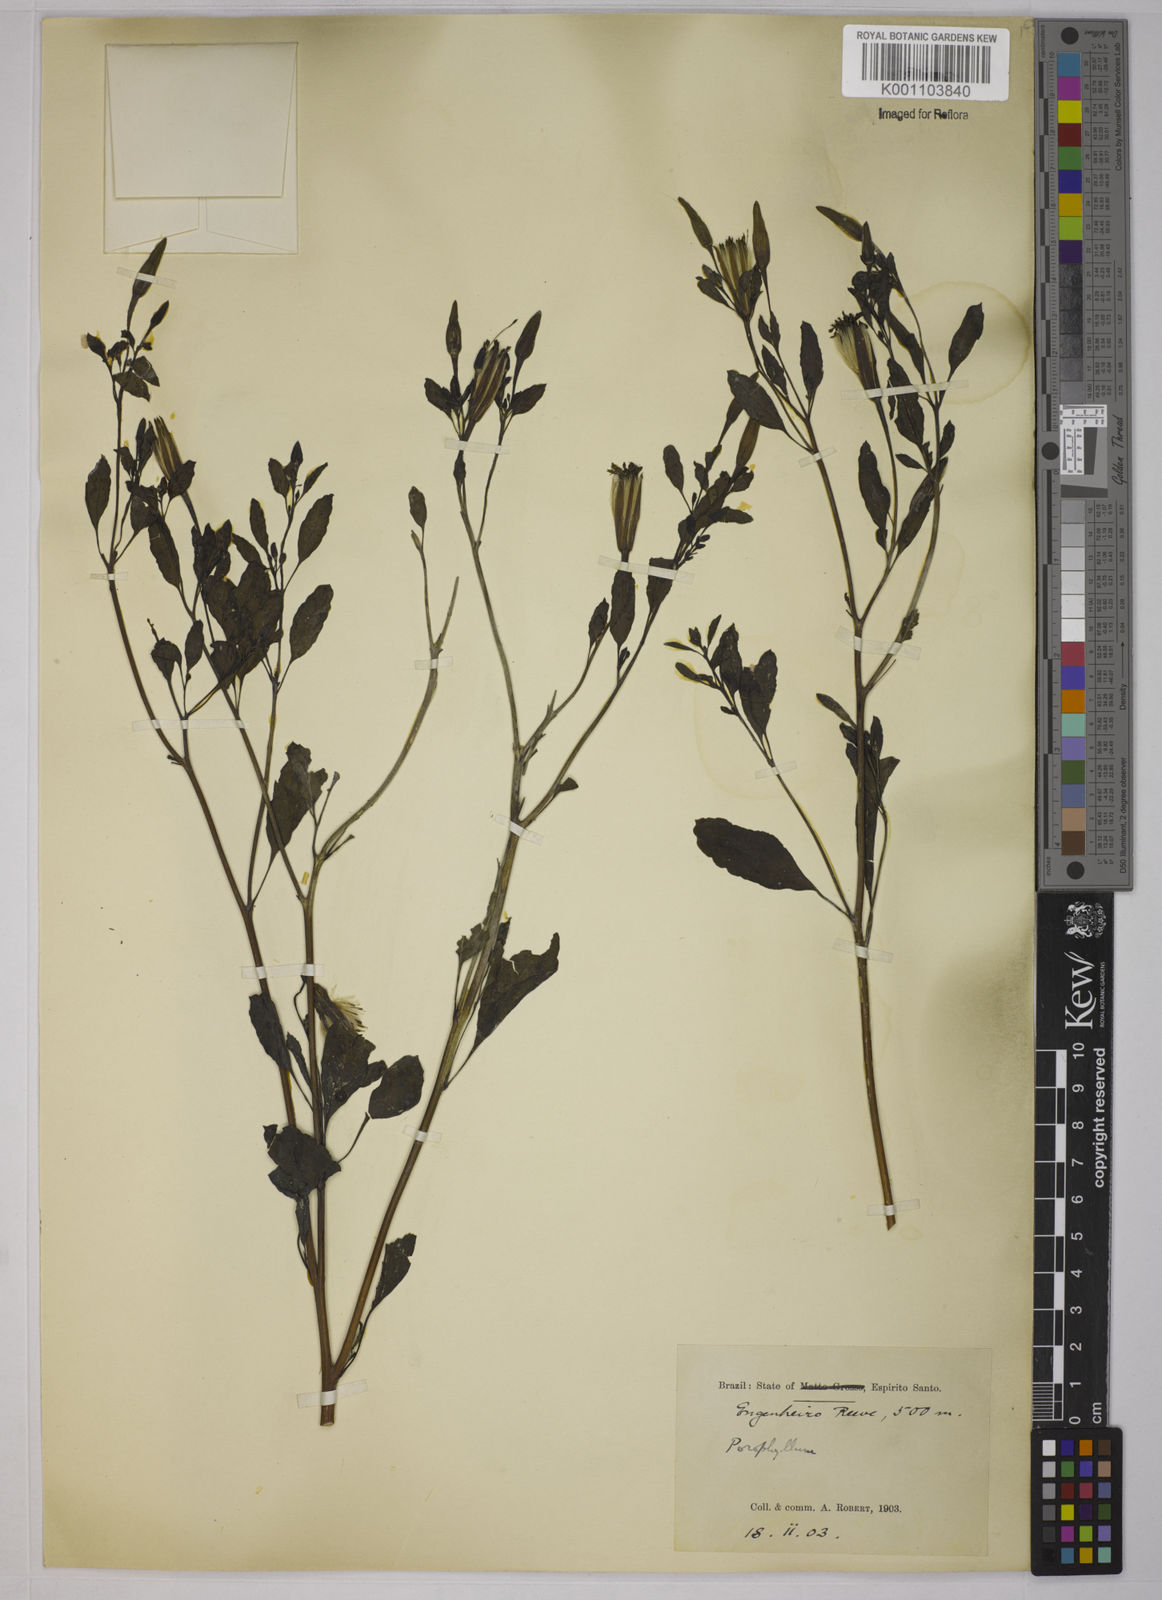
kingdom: Plantae
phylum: Tracheophyta
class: Magnoliopsida
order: Asterales
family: Asteraceae
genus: Porophyllum
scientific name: Porophyllum ruderale
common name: Yerba porosa
